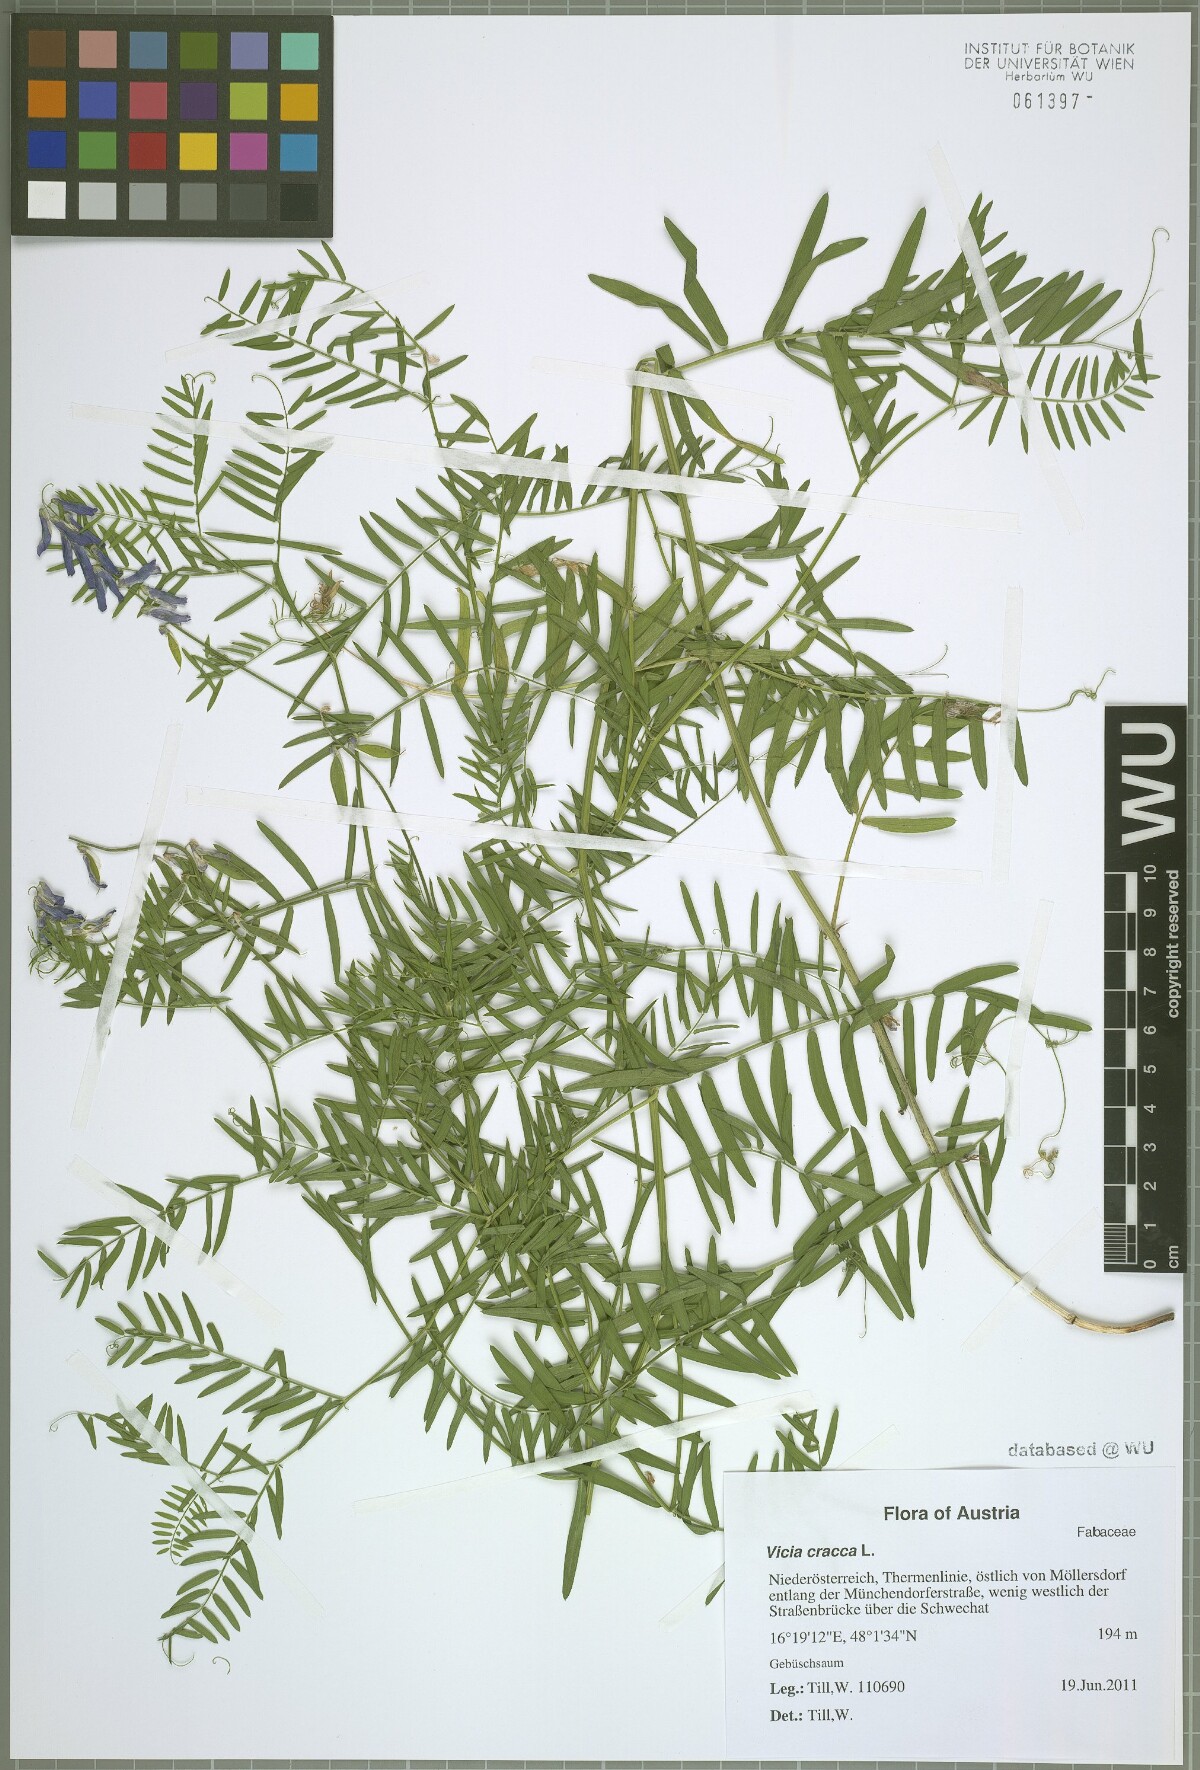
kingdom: Plantae
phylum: Tracheophyta
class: Magnoliopsida
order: Fabales
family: Fabaceae
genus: Vicia
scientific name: Vicia cracca
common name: Bird vetch
